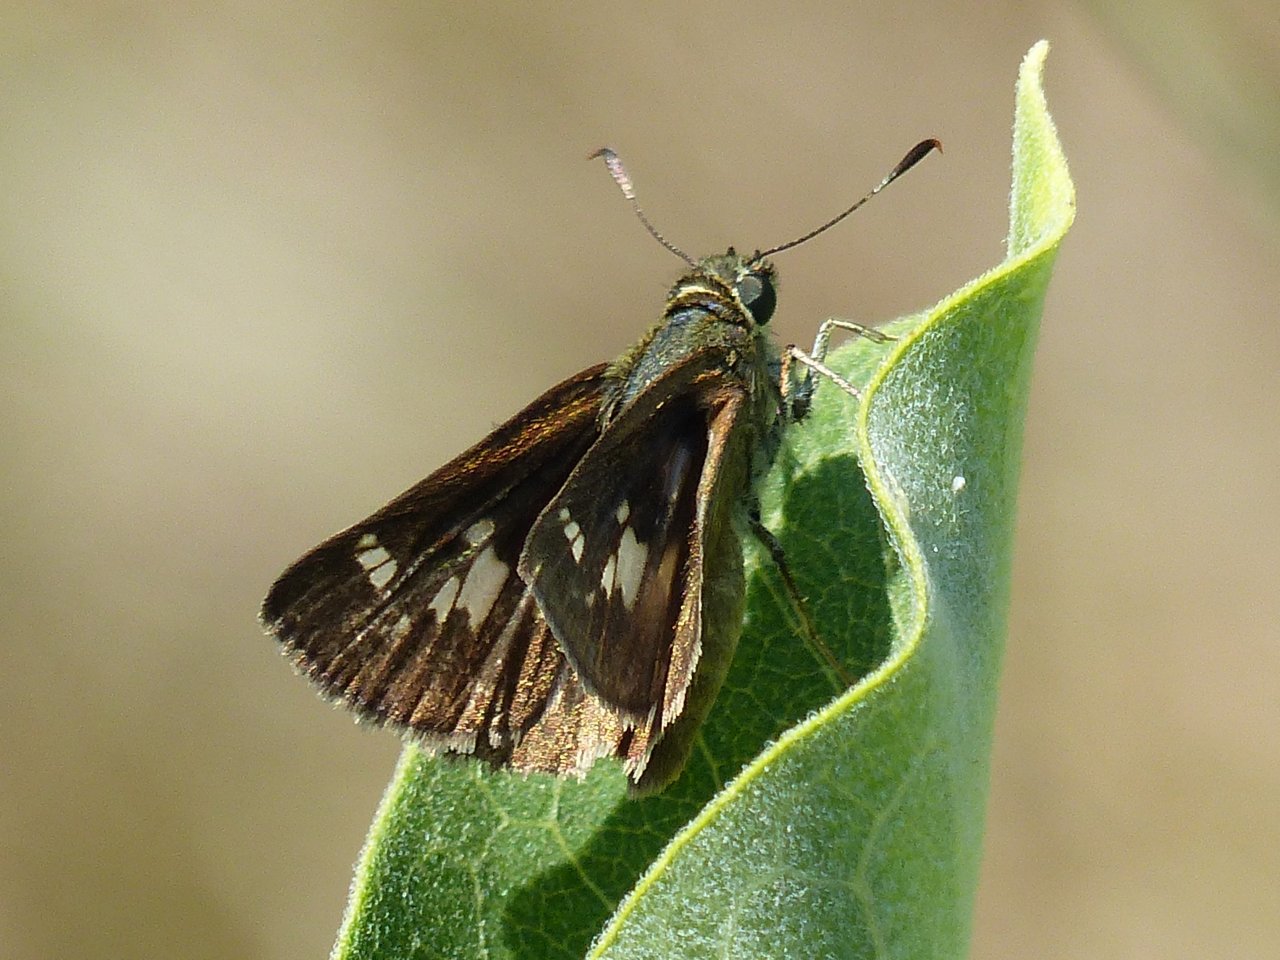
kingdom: Animalia
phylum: Arthropoda
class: Insecta
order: Lepidoptera
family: Hesperiidae
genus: Vernia
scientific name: Vernia verna
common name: Little Glassywing
